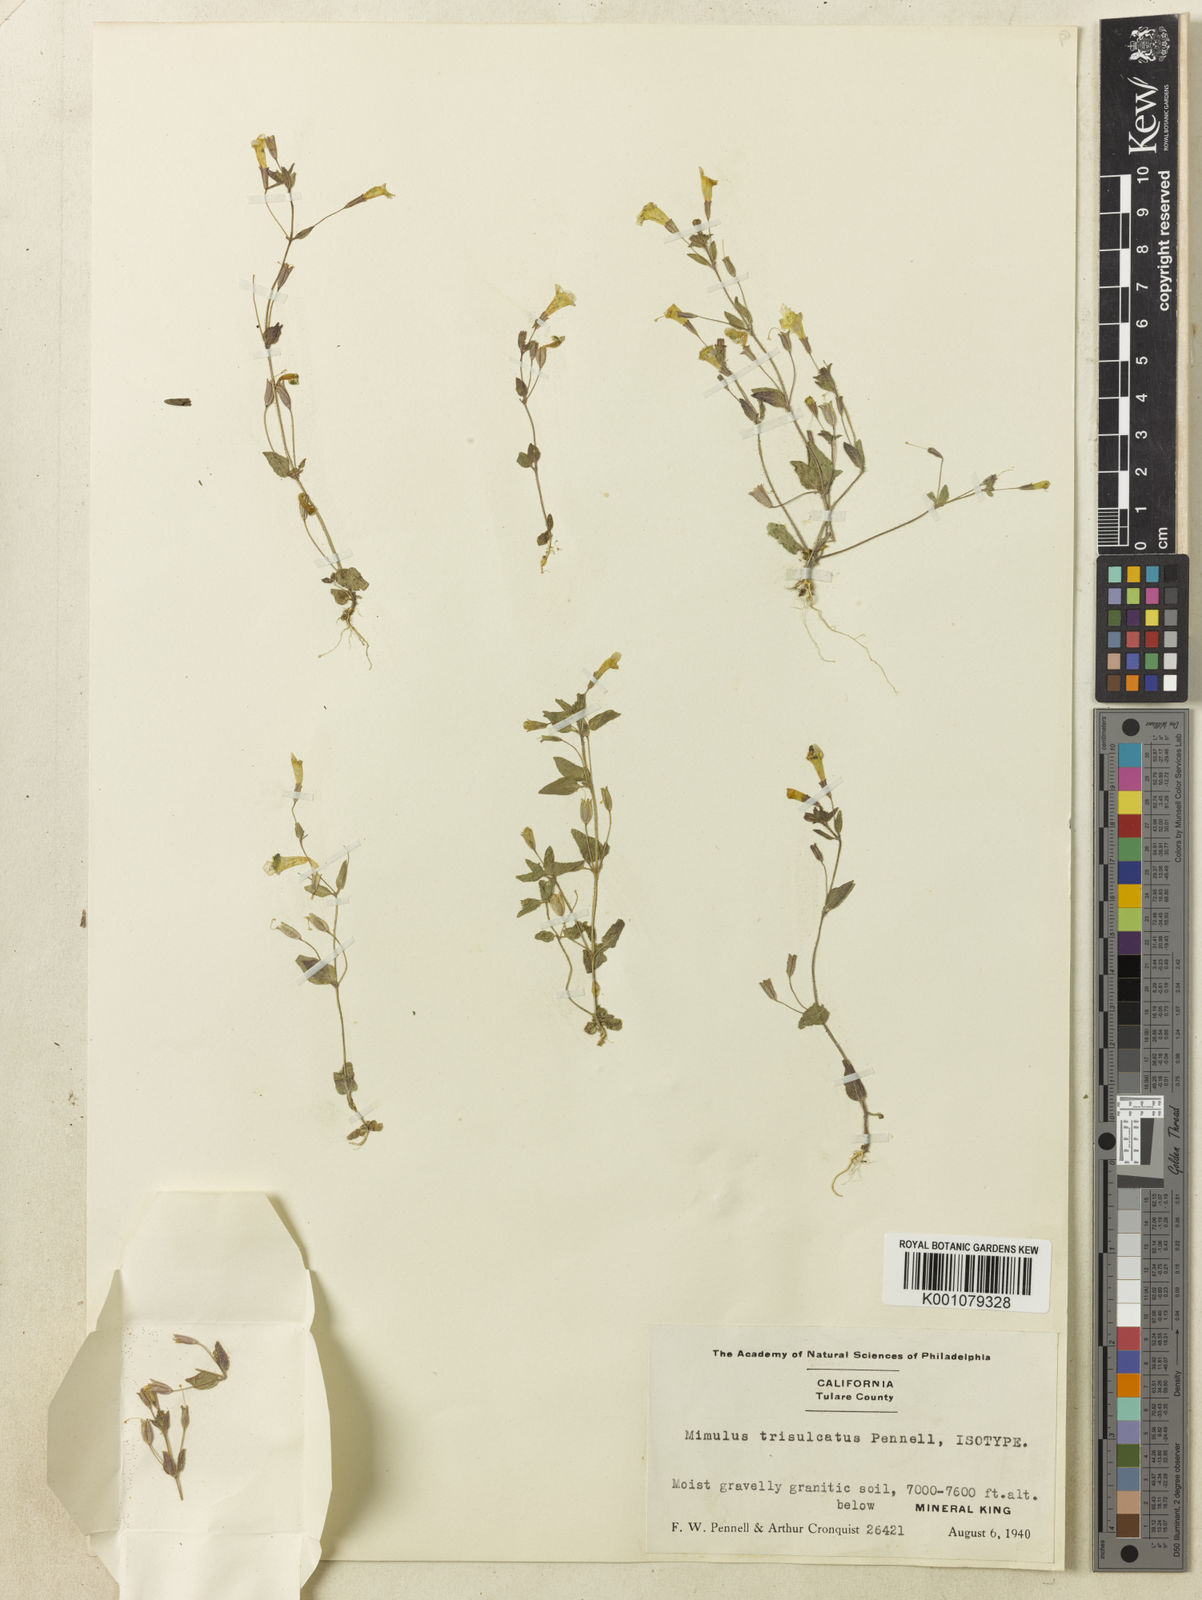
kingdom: Plantae
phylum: Tracheophyta
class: Magnoliopsida
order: Lamiales
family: Phrymaceae
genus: Erythranthe
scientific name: Erythranthe floribunda
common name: Floriferous monkeyflower
